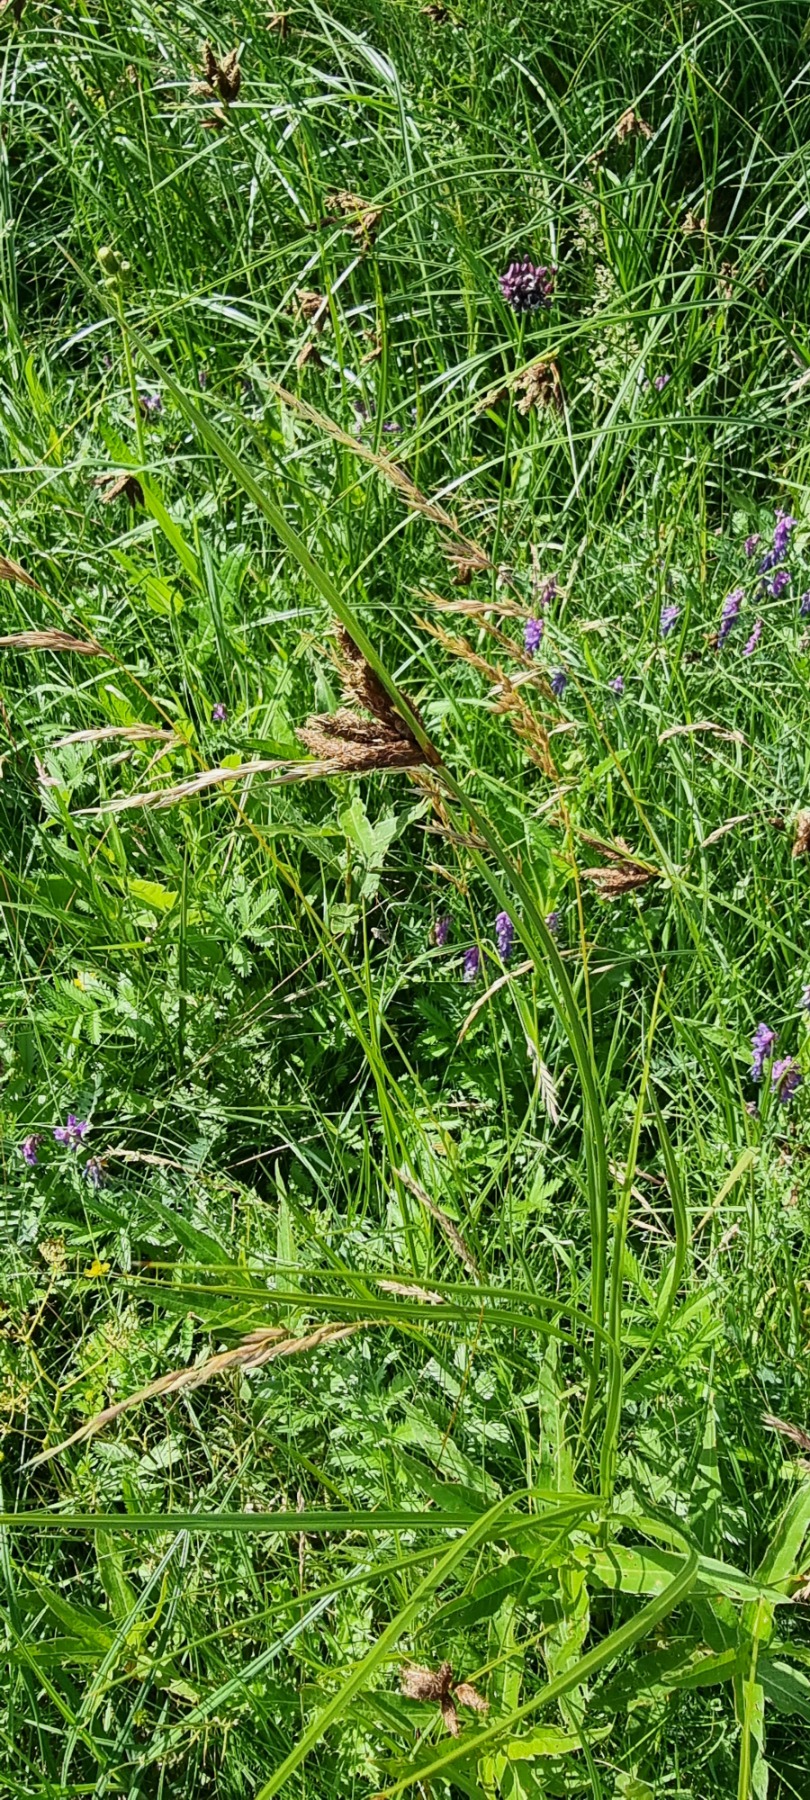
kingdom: Plantae
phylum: Tracheophyta
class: Liliopsida
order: Poales
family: Cyperaceae
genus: Bolboschoenus
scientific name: Bolboschoenus maritimus
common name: Strand-kogleaks
